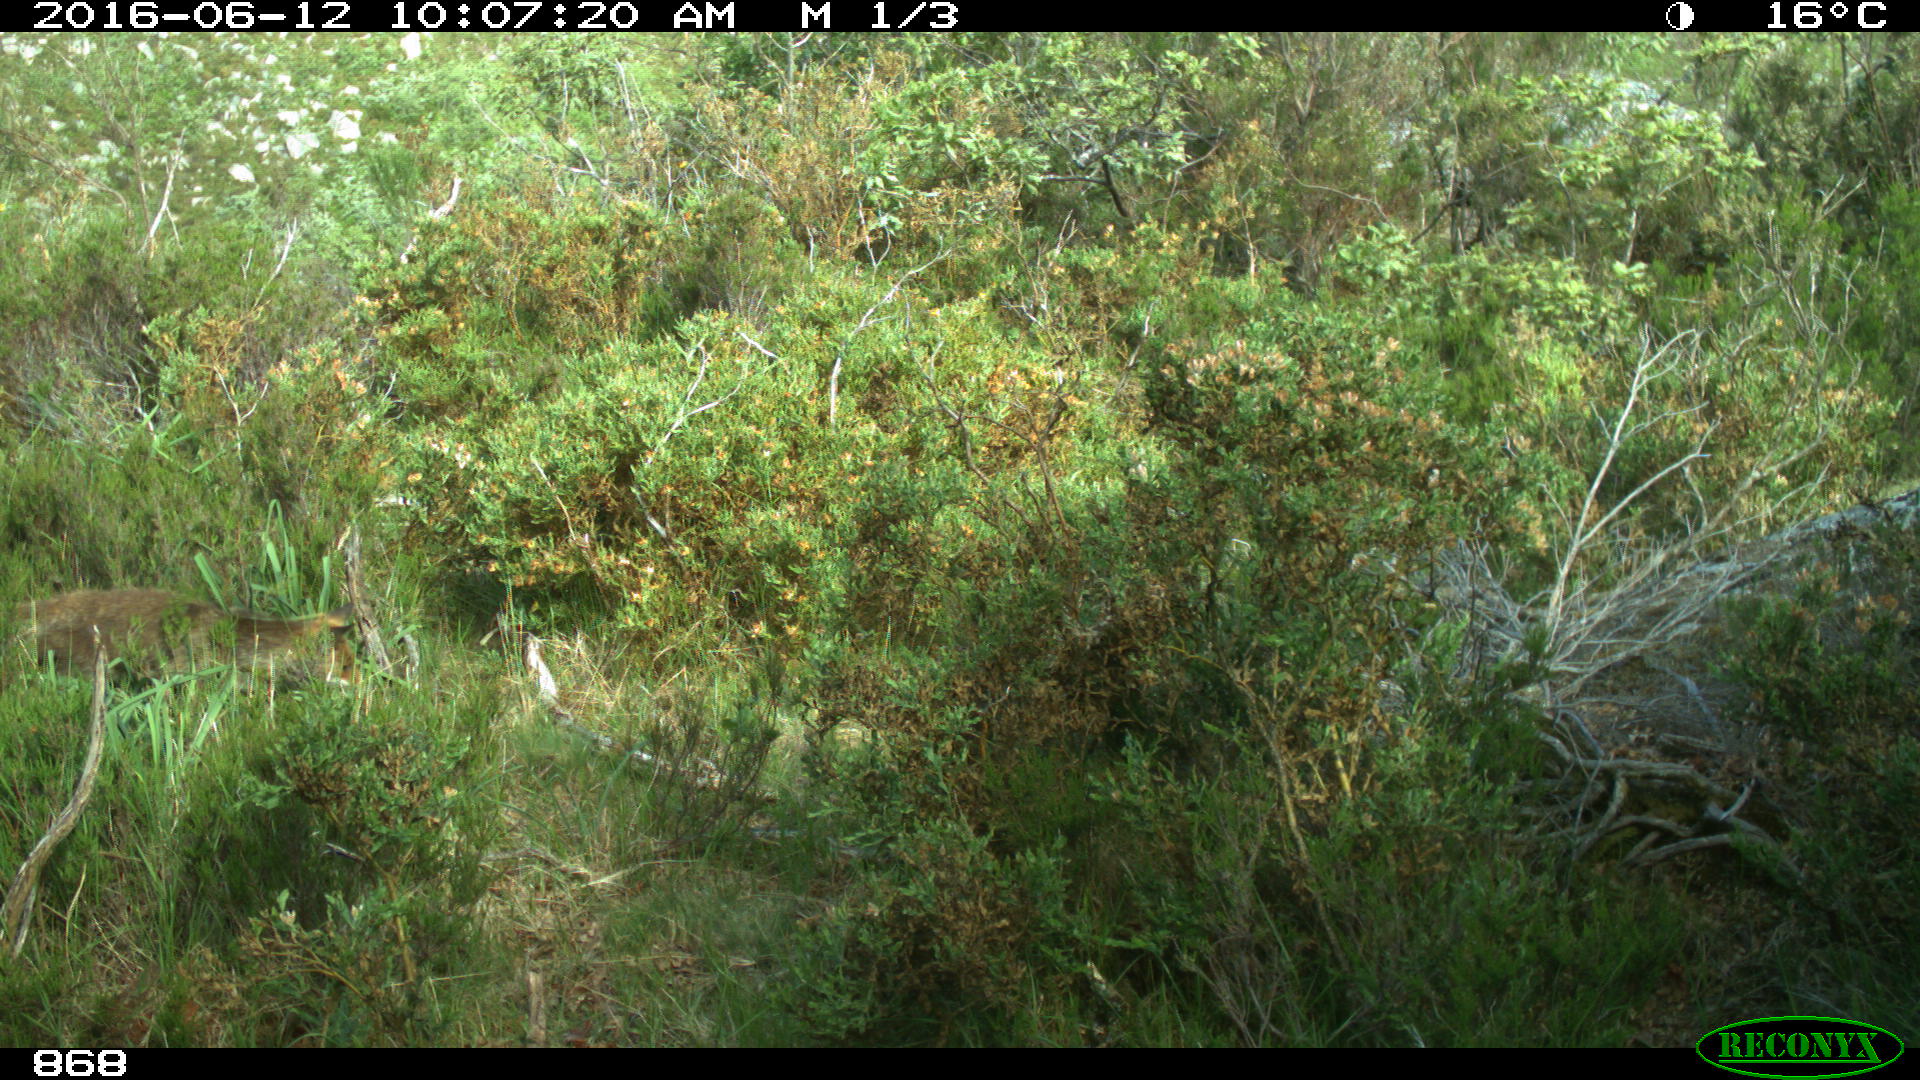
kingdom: Animalia
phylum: Chordata
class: Mammalia
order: Carnivora
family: Canidae
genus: Vulpes
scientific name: Vulpes vulpes
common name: Red fox
